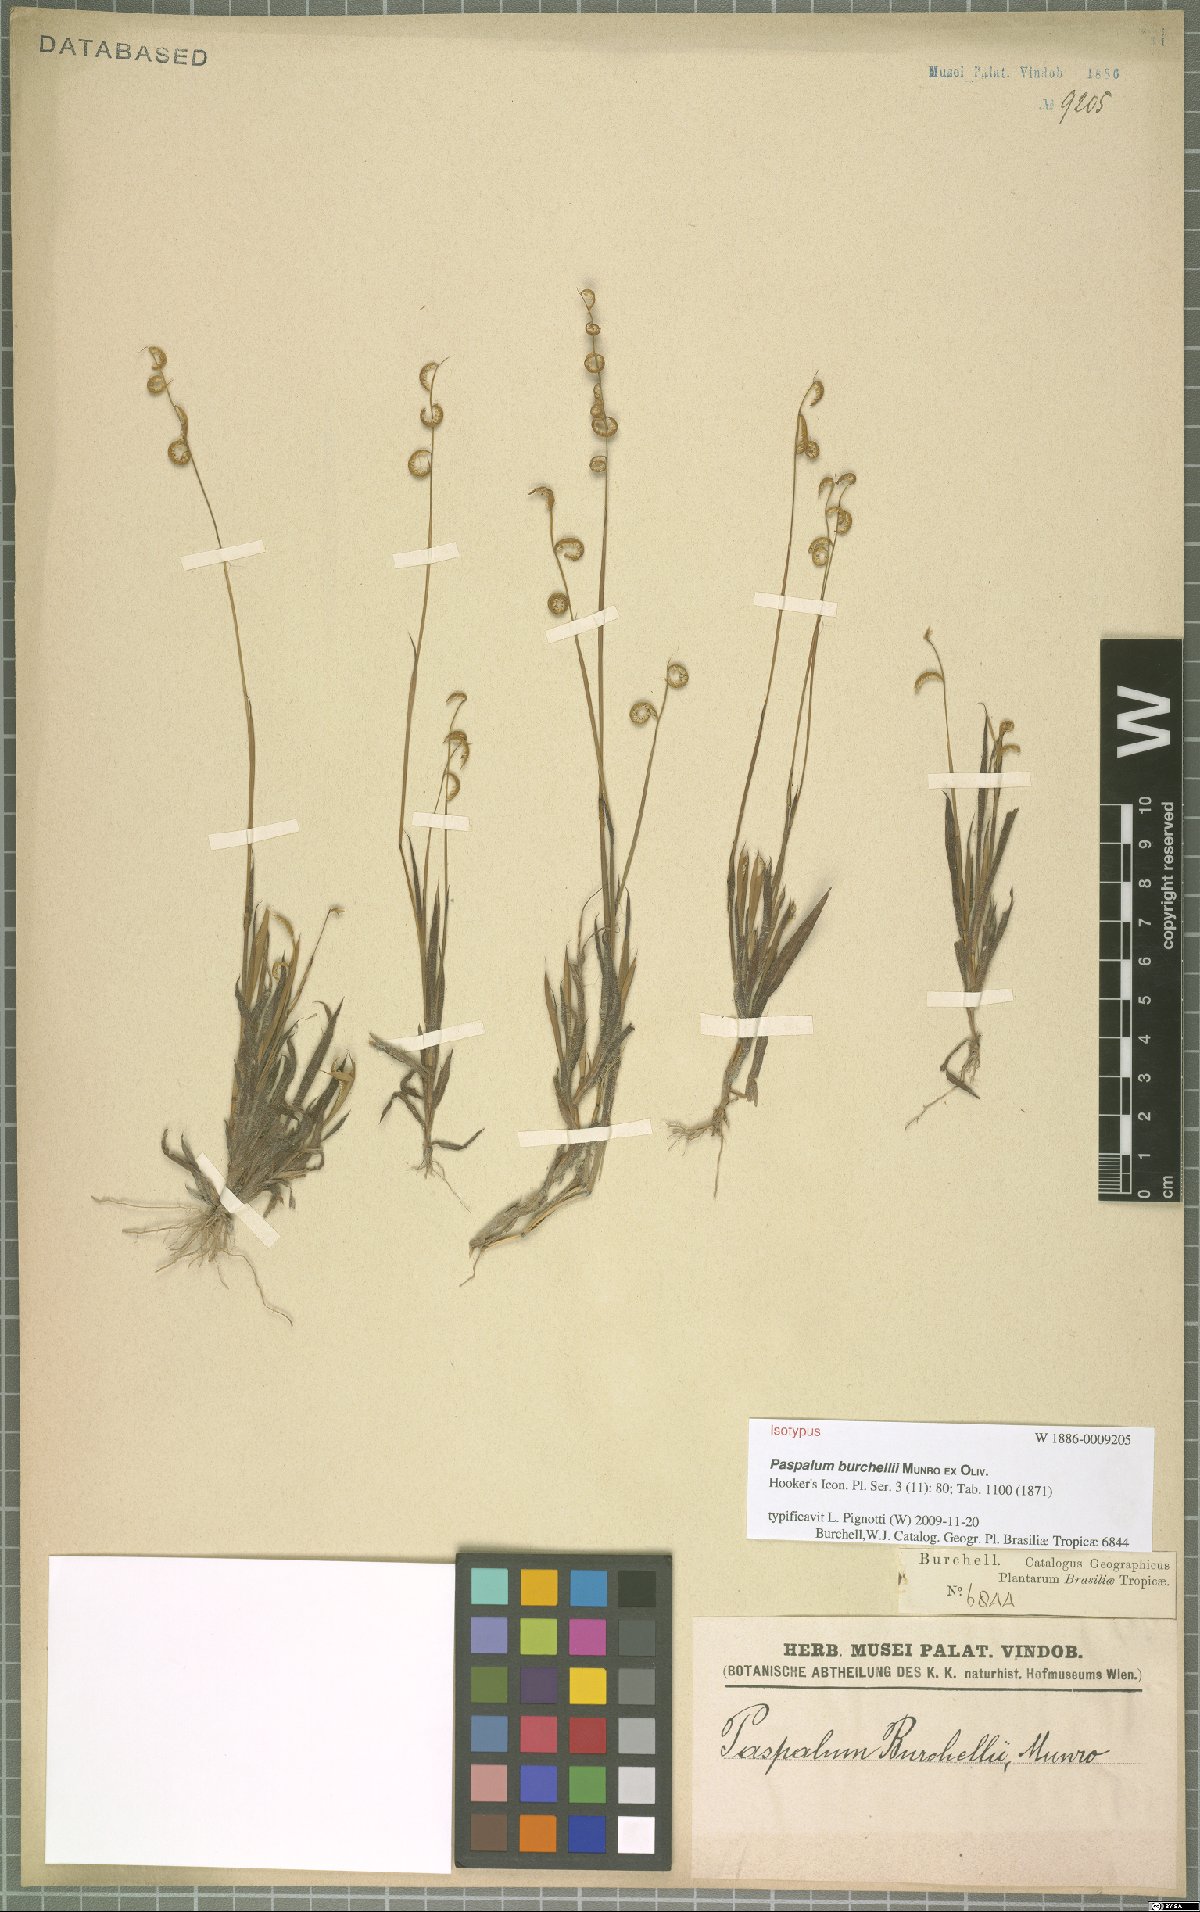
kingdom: Plantae
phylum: Tracheophyta
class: Liliopsida
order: Poales
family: Poaceae
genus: Paspalum
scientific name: Paspalum burchellii
